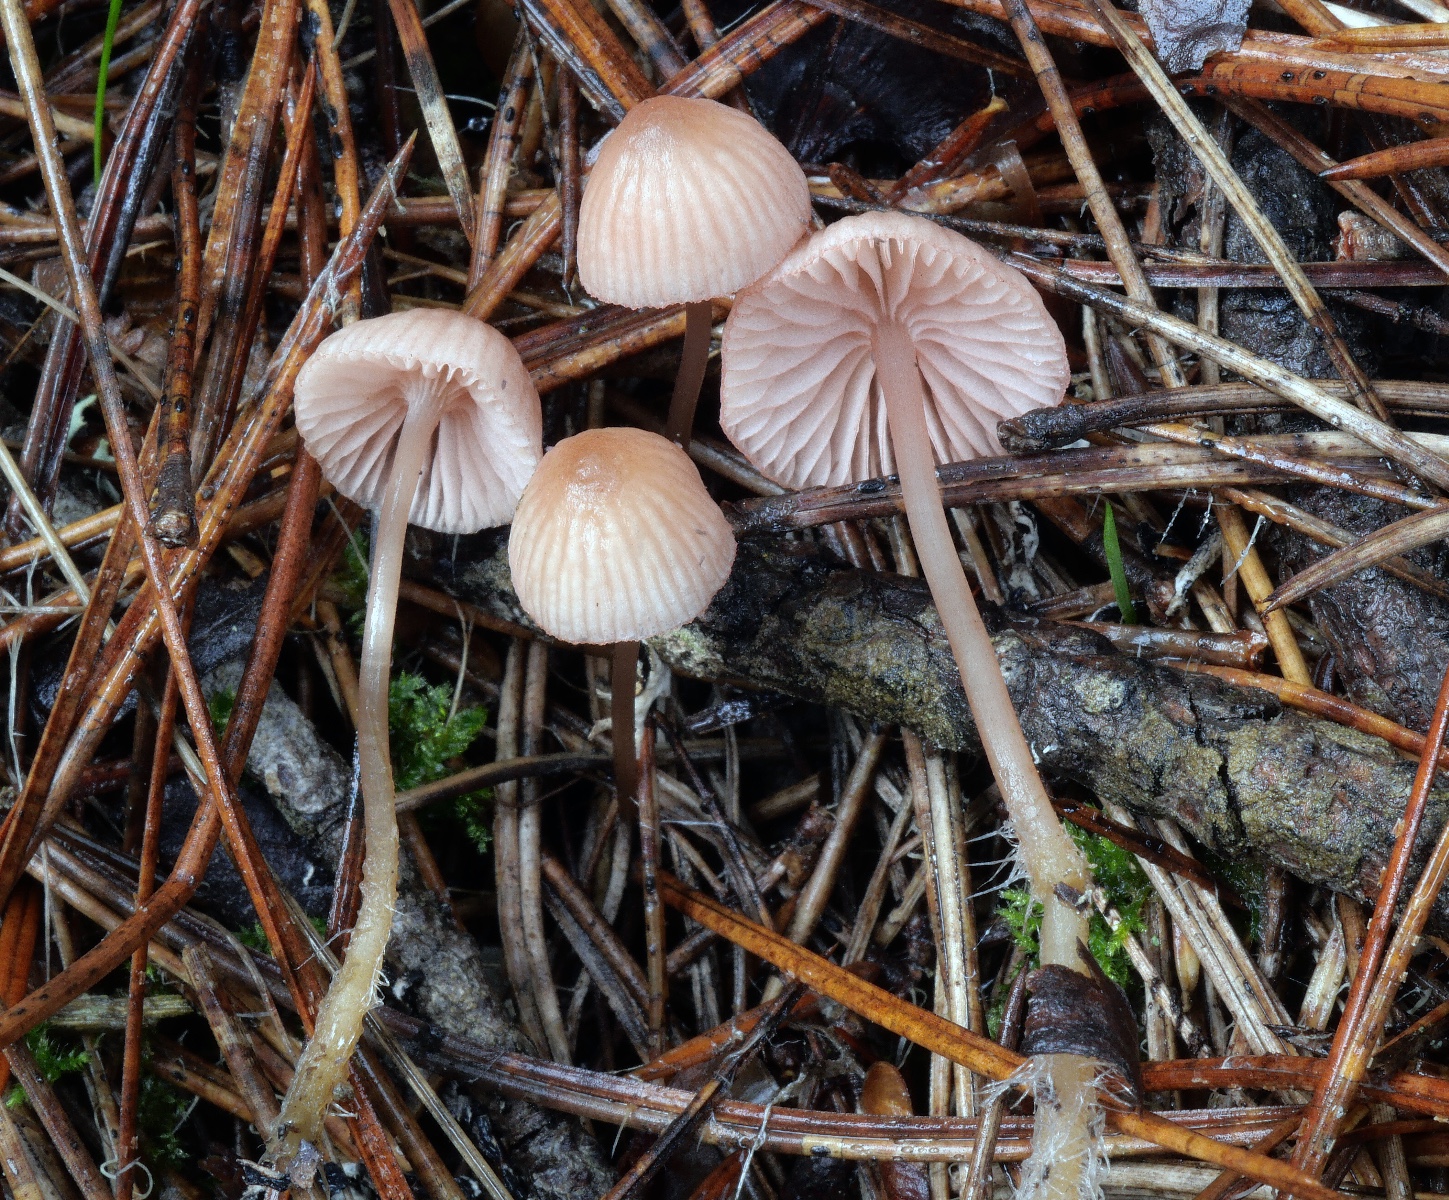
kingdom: Fungi
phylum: Basidiomycota
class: Agaricomycetes
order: Agaricales
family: Mycenaceae
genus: Mycena
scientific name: Mycena rosella
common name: rosenrød huesvamp
